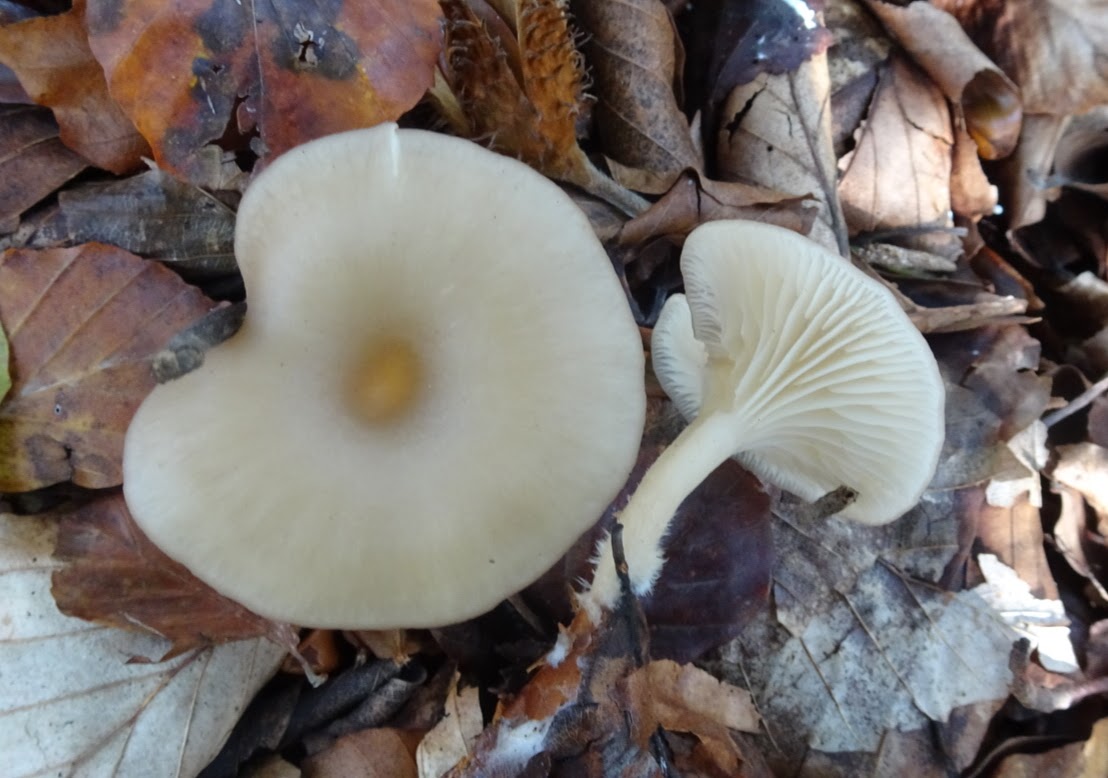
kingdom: Fungi
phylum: Basidiomycota
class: Agaricomycetes
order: Agaricales
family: Tricholomataceae
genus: Clitocybe
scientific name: Clitocybe
